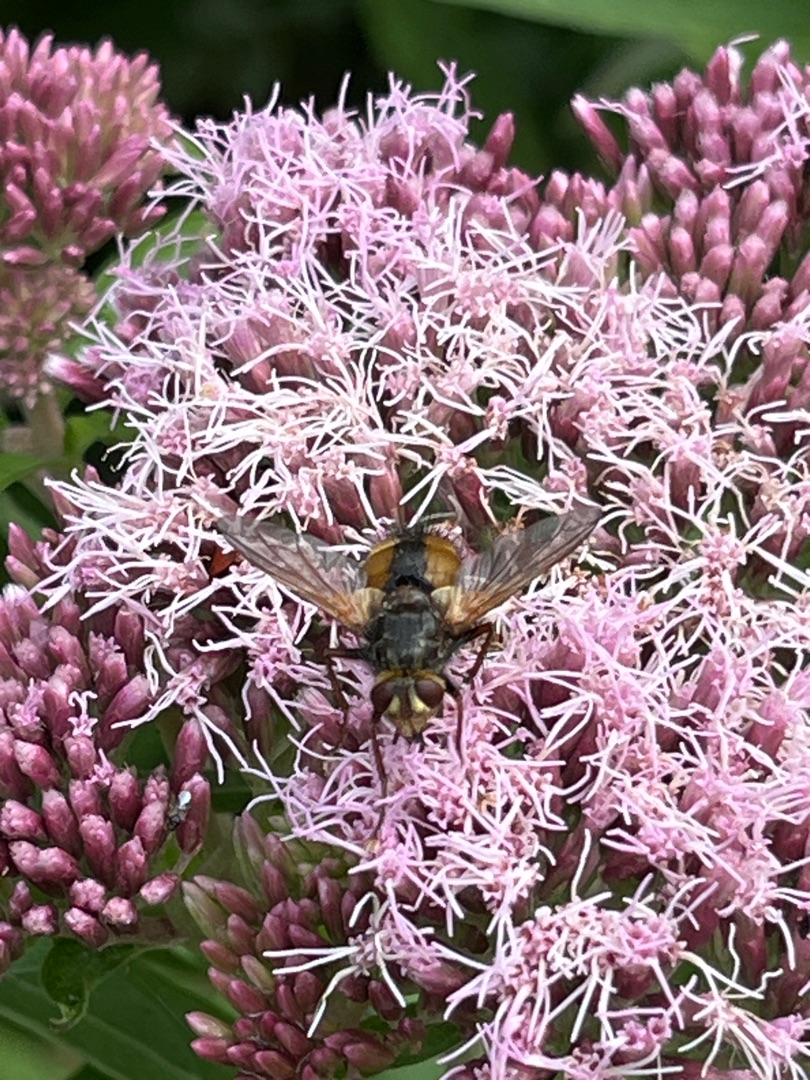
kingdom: Animalia
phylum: Arthropoda
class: Insecta
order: Diptera
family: Tachinidae
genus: Tachina
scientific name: Tachina fera
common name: Mellemfluen oskar
